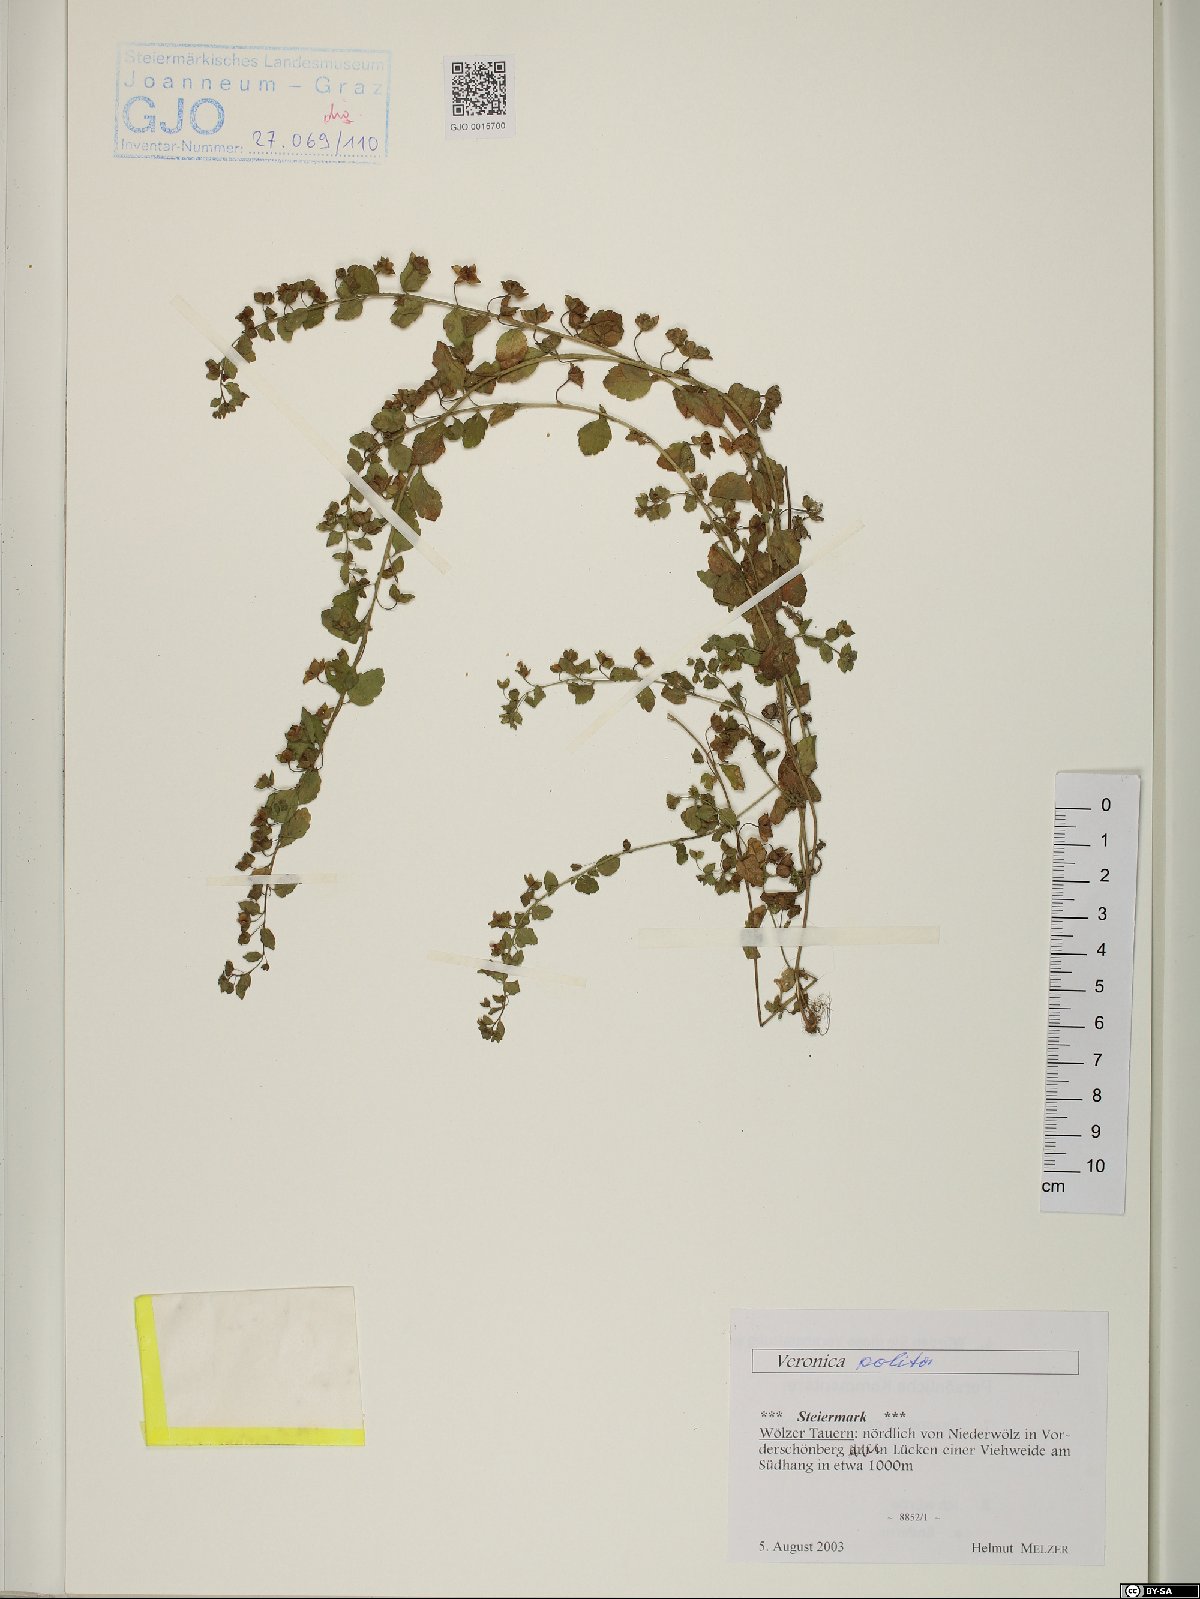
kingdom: Plantae
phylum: Tracheophyta
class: Magnoliopsida
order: Lamiales
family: Plantaginaceae
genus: Veronica
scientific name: Veronica polita
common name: Grey field-speedwell
